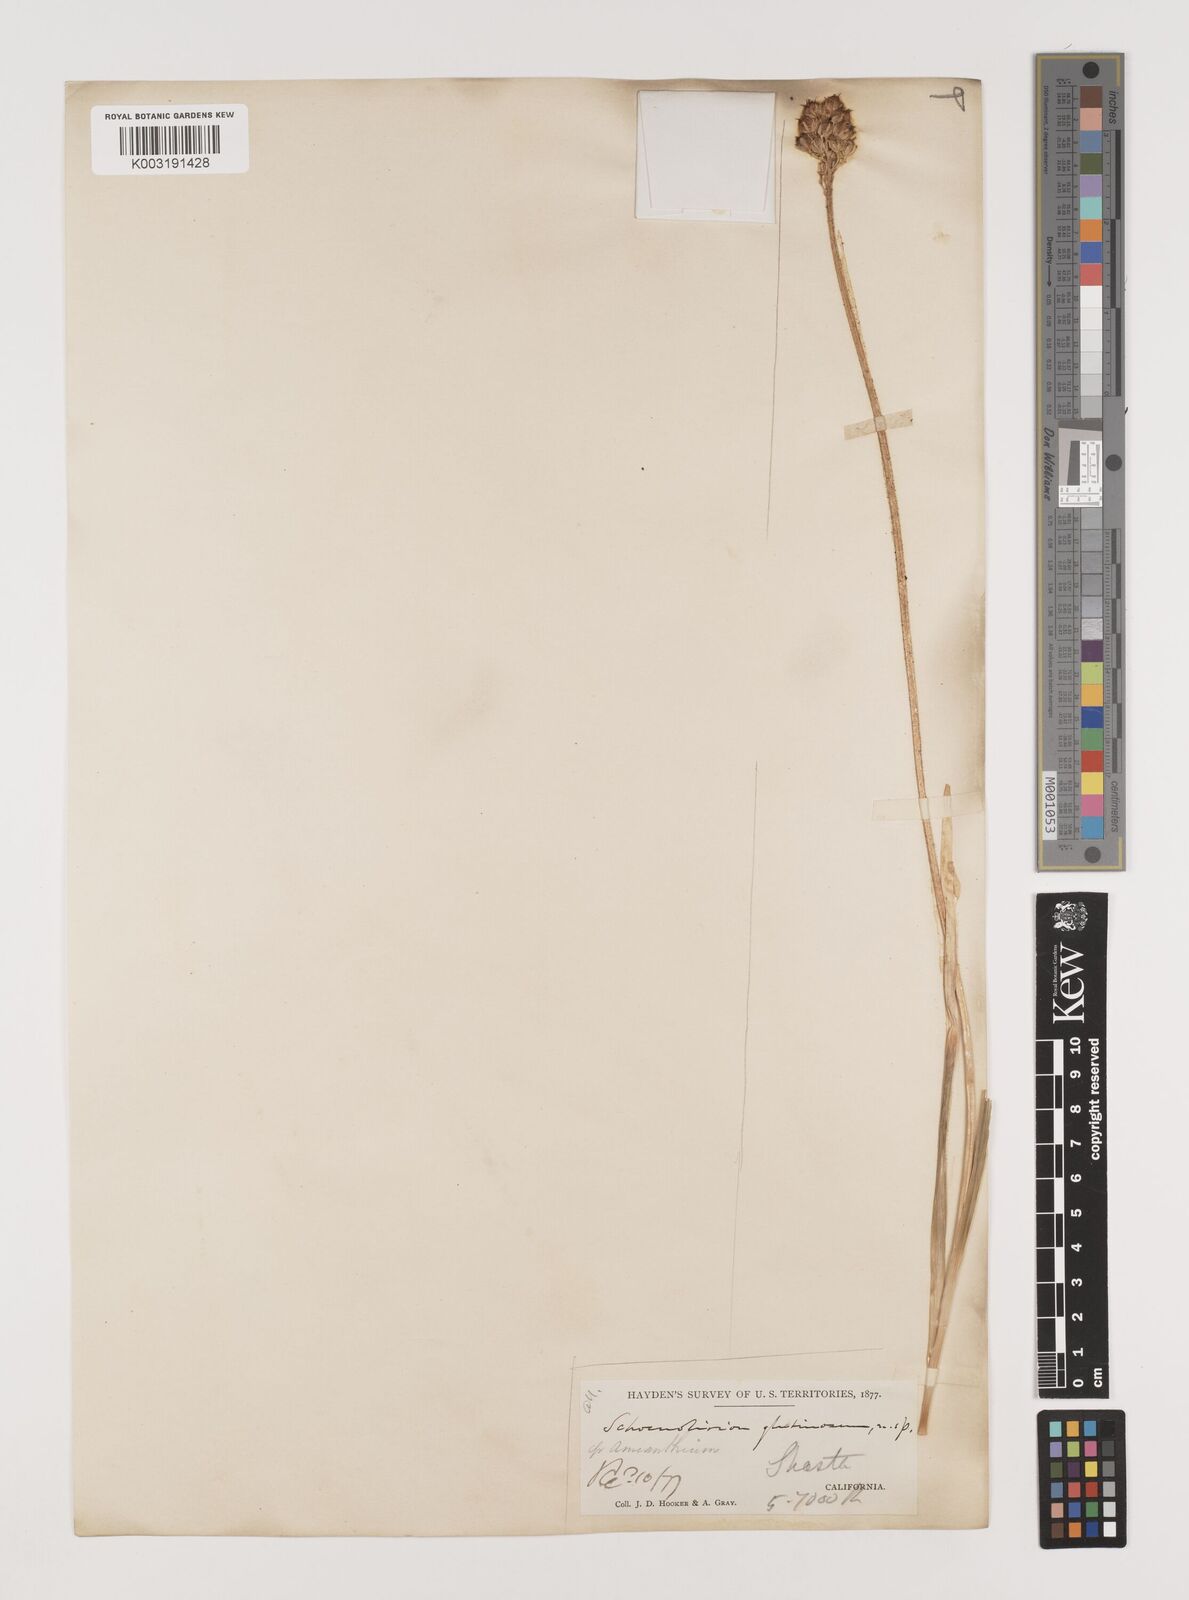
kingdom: Plantae
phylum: Tracheophyta
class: Liliopsida
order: Alismatales
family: Tofieldiaceae
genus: Triantha
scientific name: Triantha occidentalis
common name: Western false asphodel
